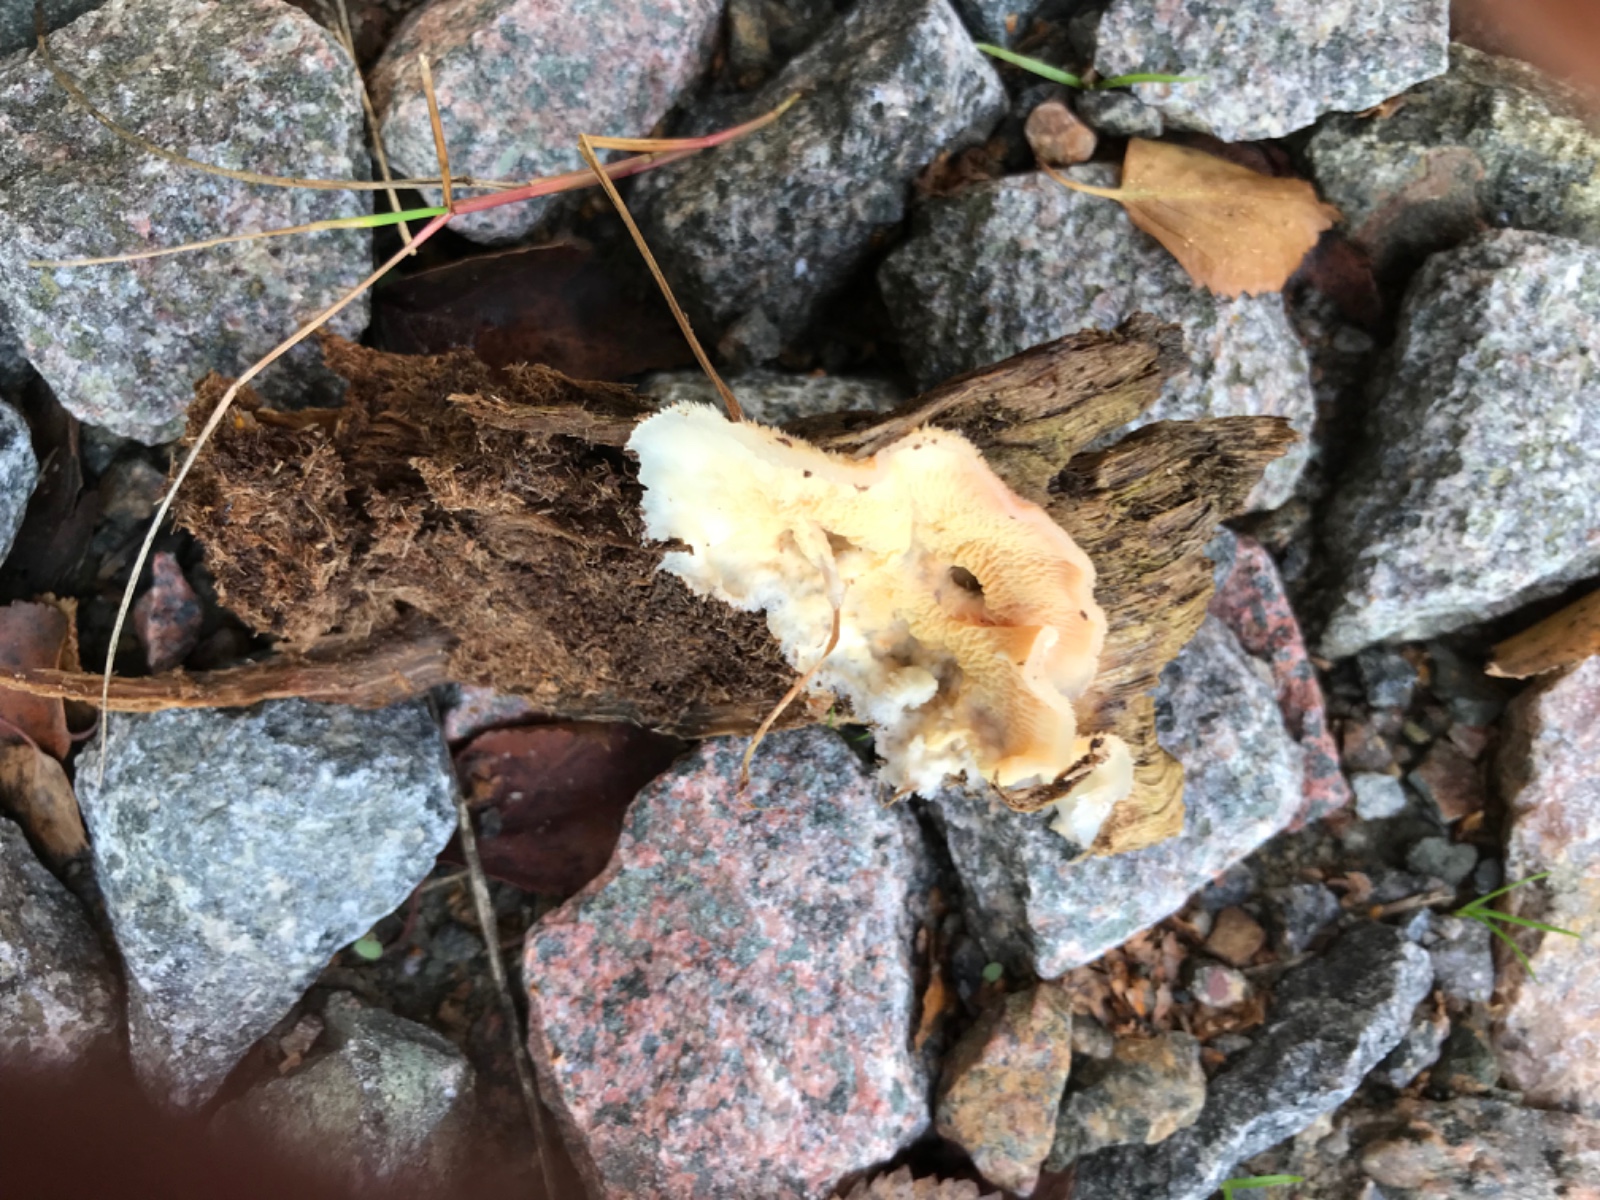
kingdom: Fungi
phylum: Basidiomycota
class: Agaricomycetes
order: Polyporales
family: Meruliaceae
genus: Phlebia
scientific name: Phlebia tremellosa
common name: bævrende åresvamp
